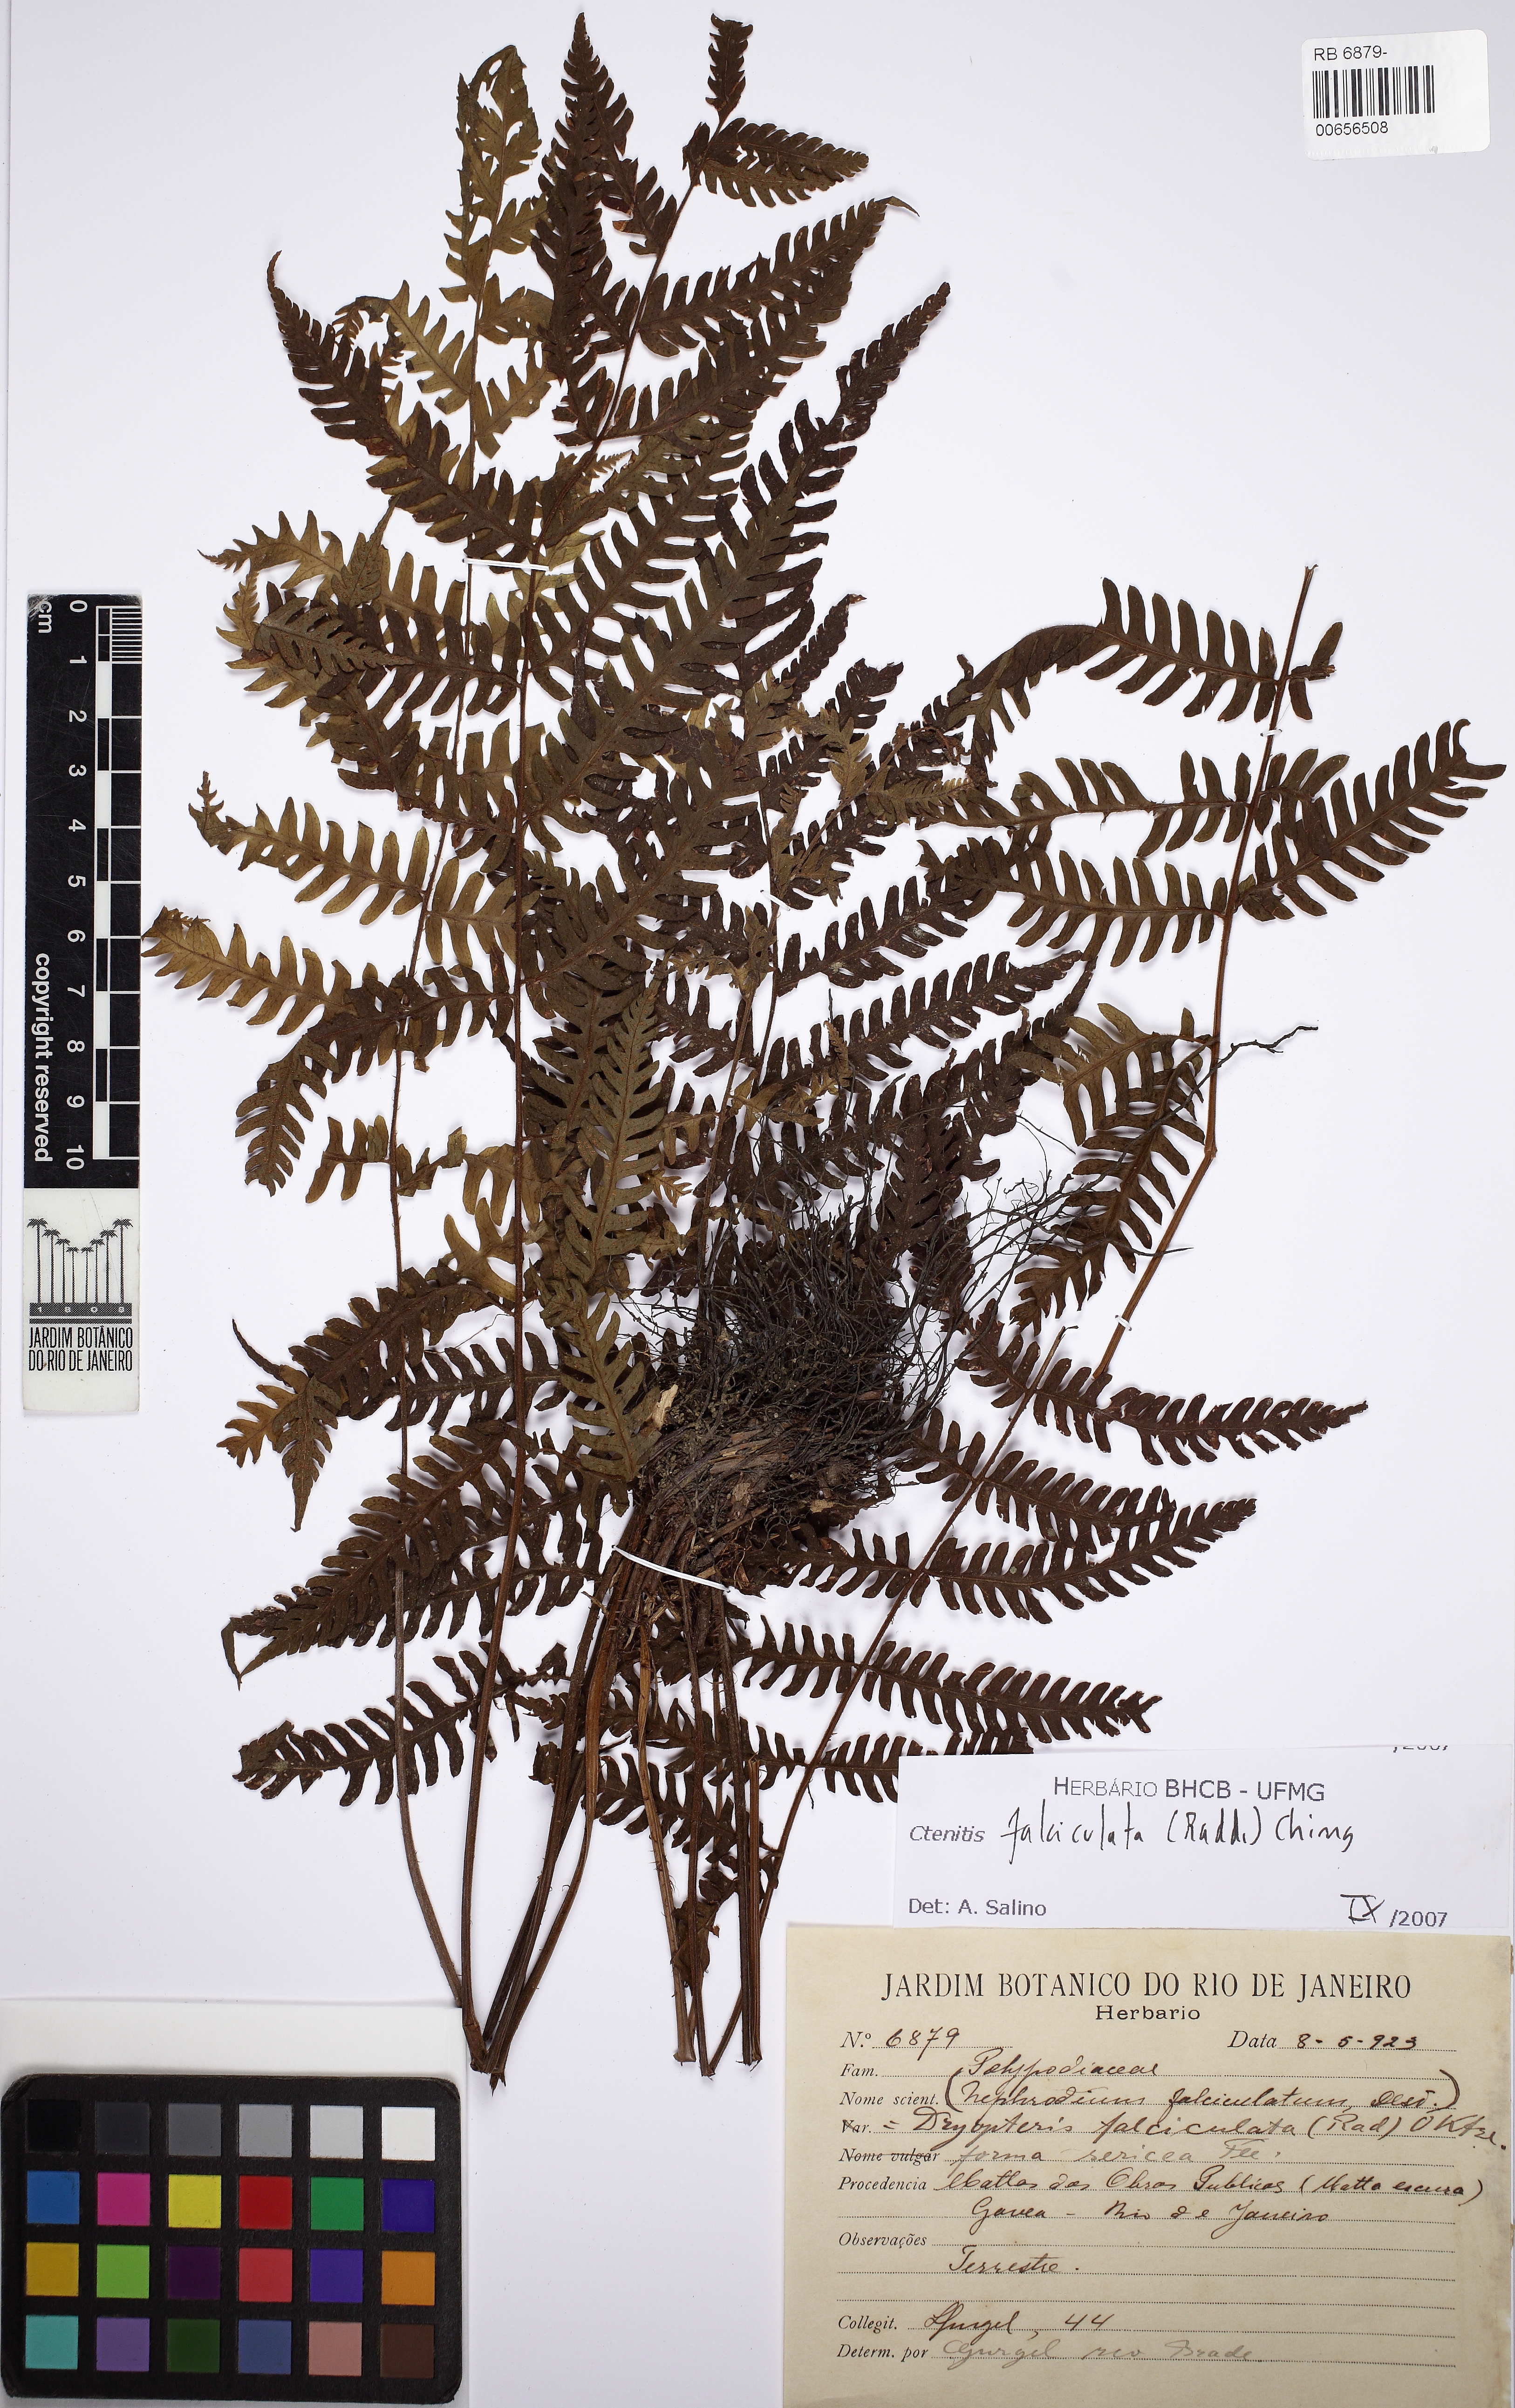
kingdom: Plantae
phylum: Tracheophyta
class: Polypodiopsida
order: Polypodiales
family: Dryopteridaceae
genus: Ctenitis
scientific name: Ctenitis falciculata
